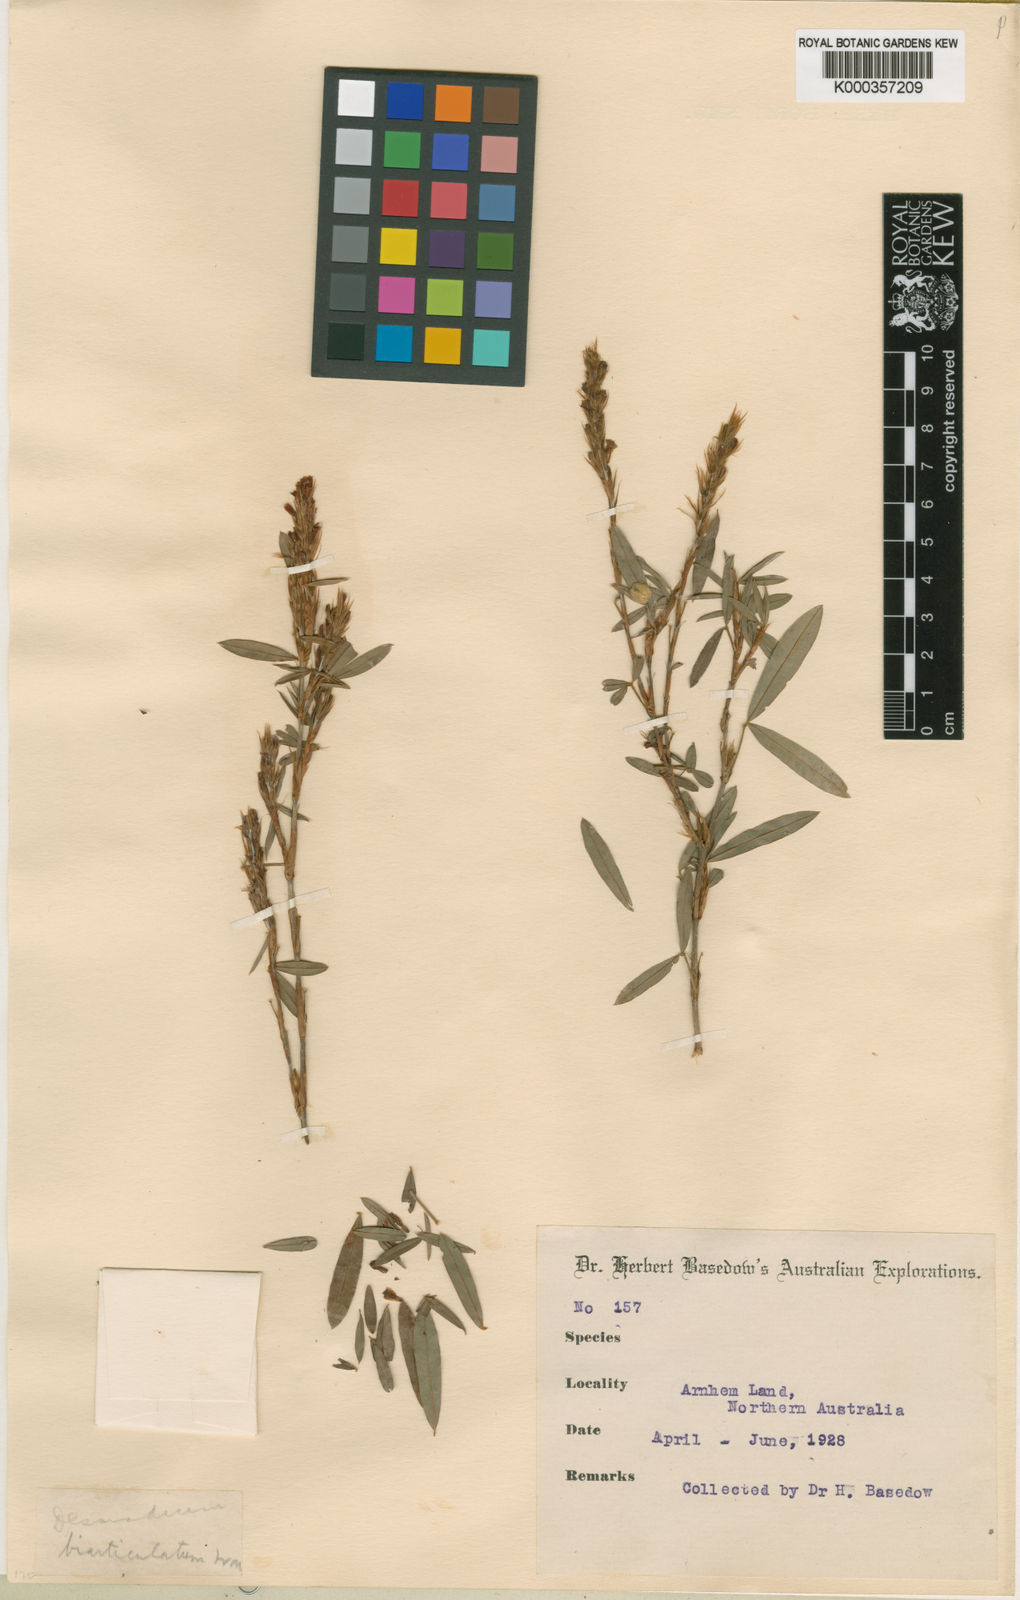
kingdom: Plantae
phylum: Tracheophyta
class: Magnoliopsida
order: Fabales
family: Fabaceae
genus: Aphyllodium
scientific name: Aphyllodium biarticulatum
